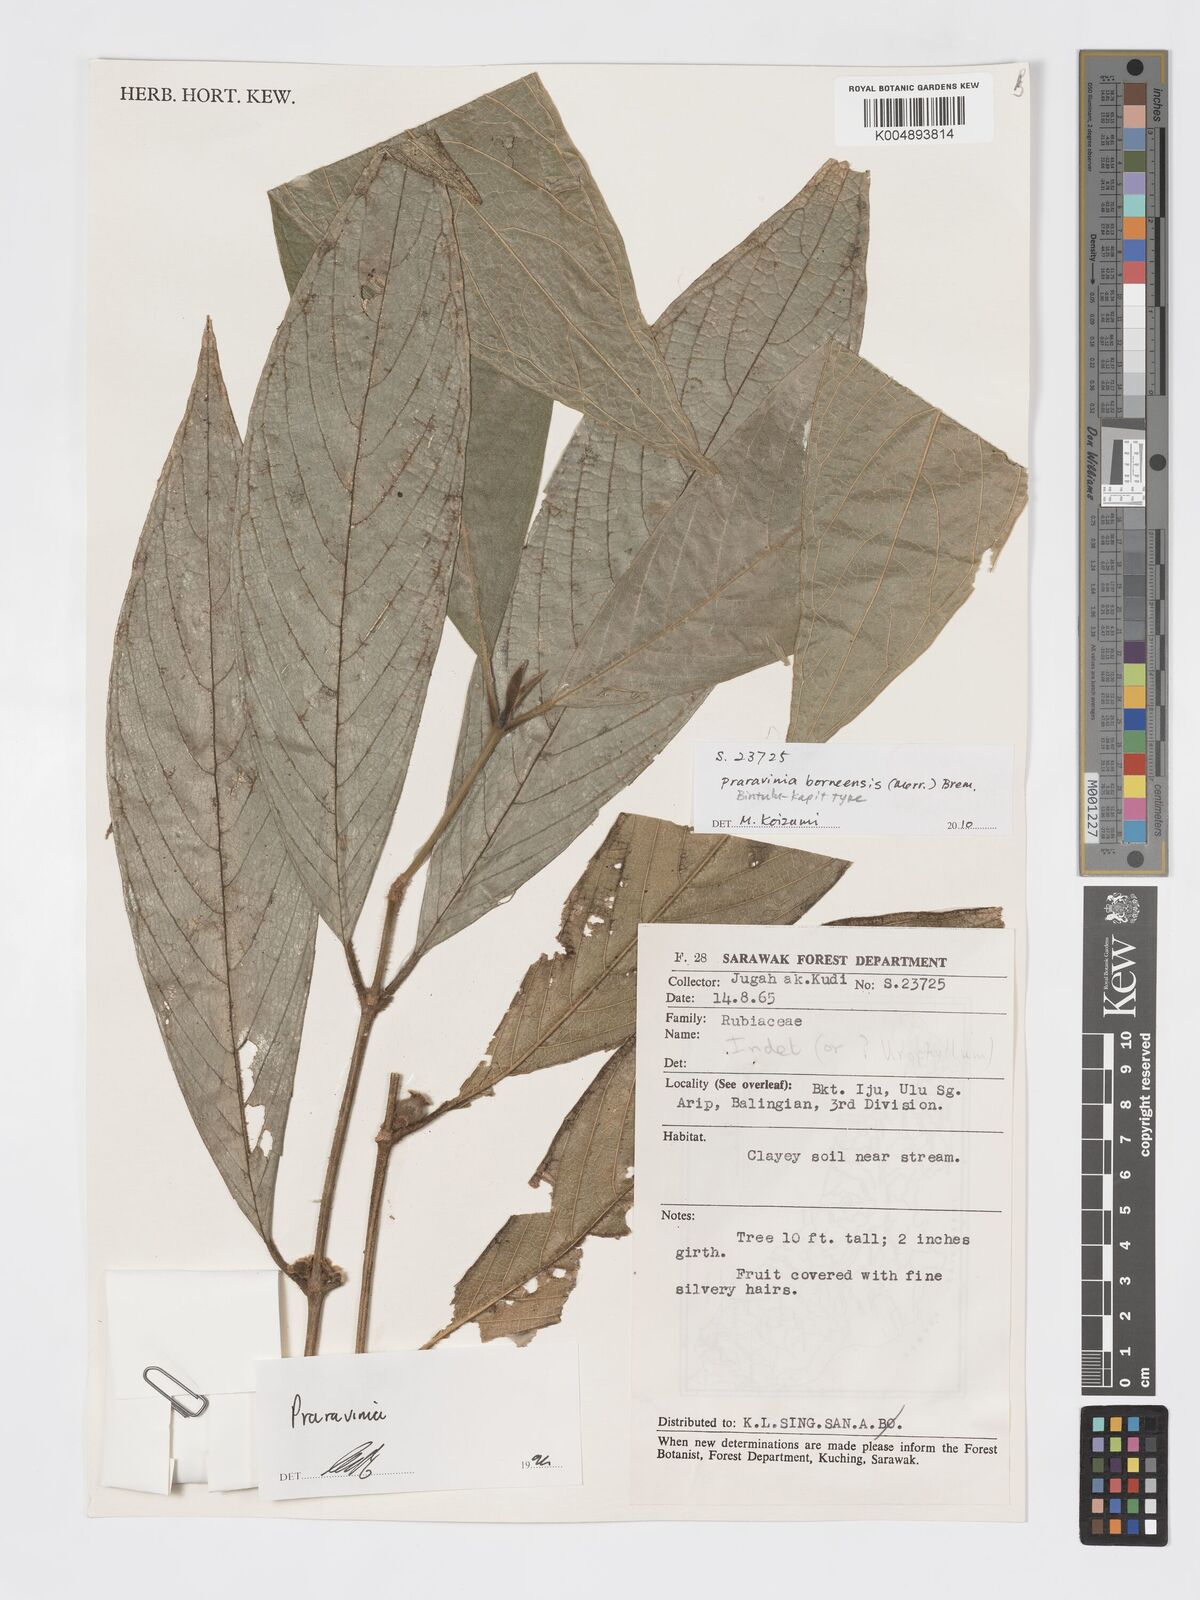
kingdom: Plantae
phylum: Tracheophyta
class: Magnoliopsida
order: Gentianales
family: Rubiaceae
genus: Praravinia
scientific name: Praravinia borneensis
